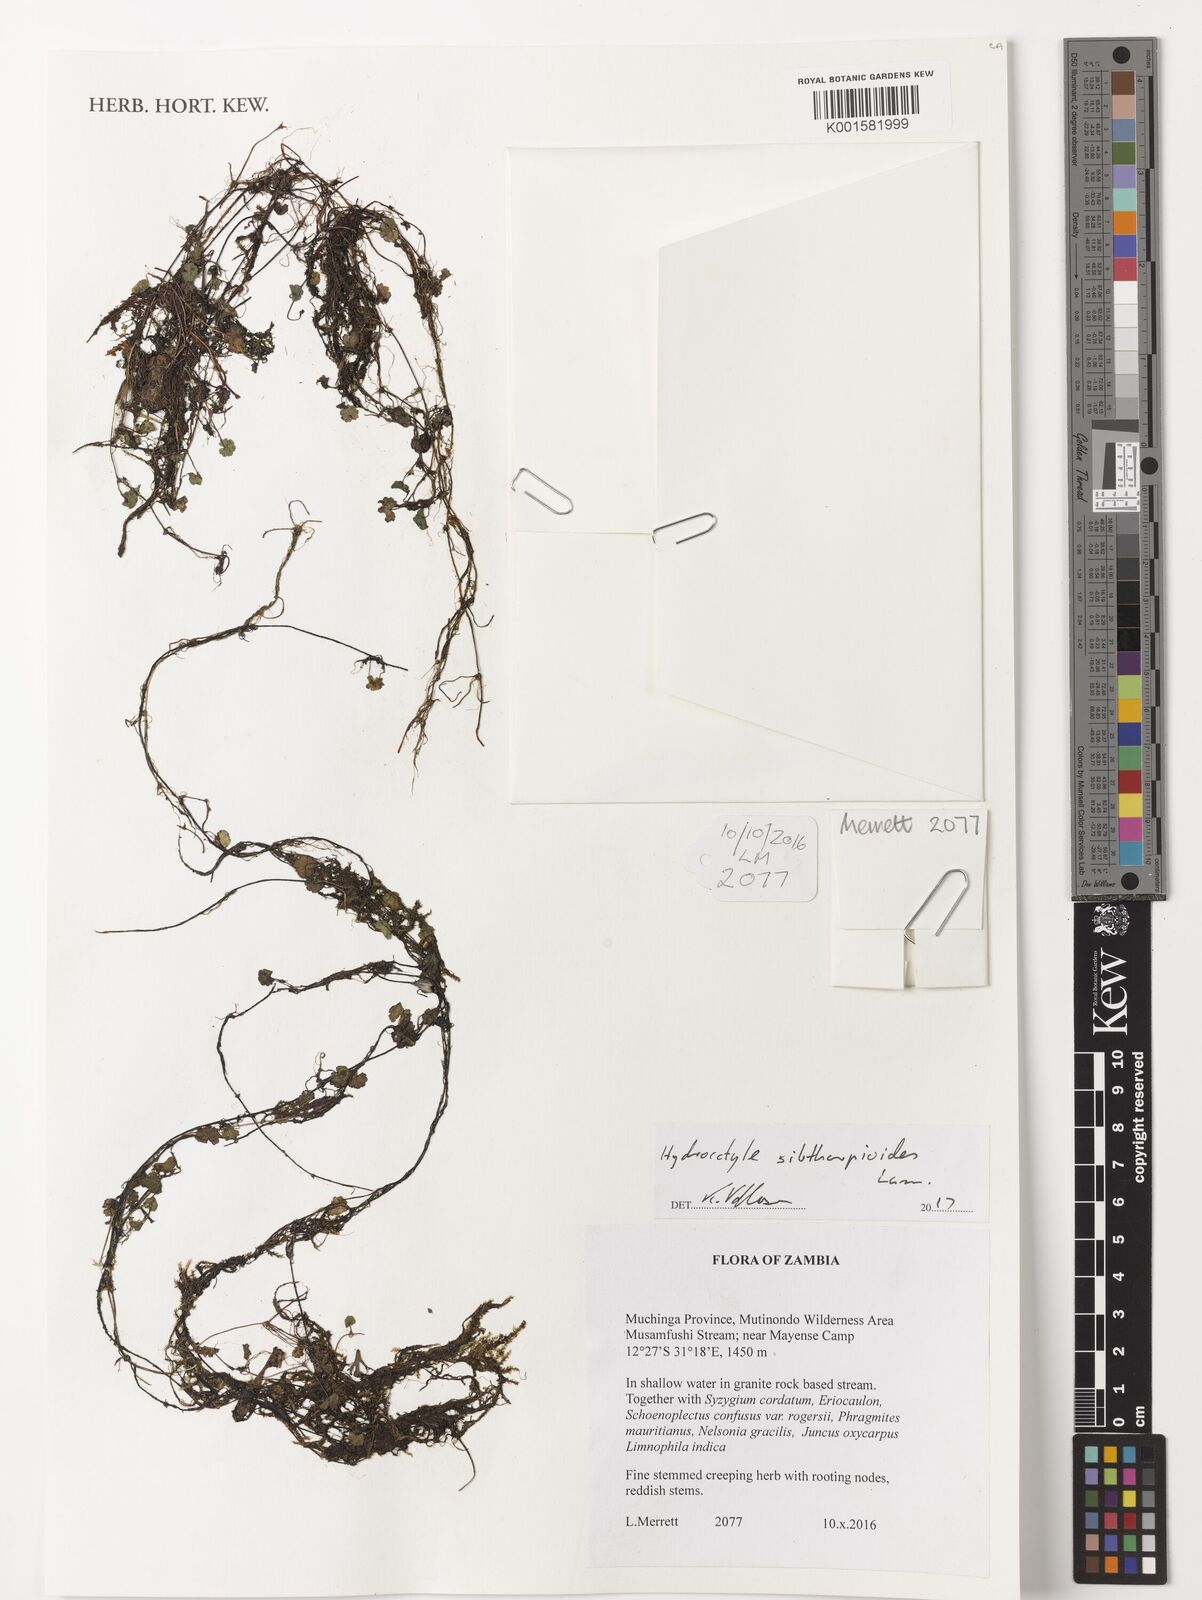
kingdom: Plantae
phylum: Tracheophyta
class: Magnoliopsida
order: Apiales
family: Araliaceae
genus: Hydrocotyle
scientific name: Hydrocotyle moschata
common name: Hairy pennywort
